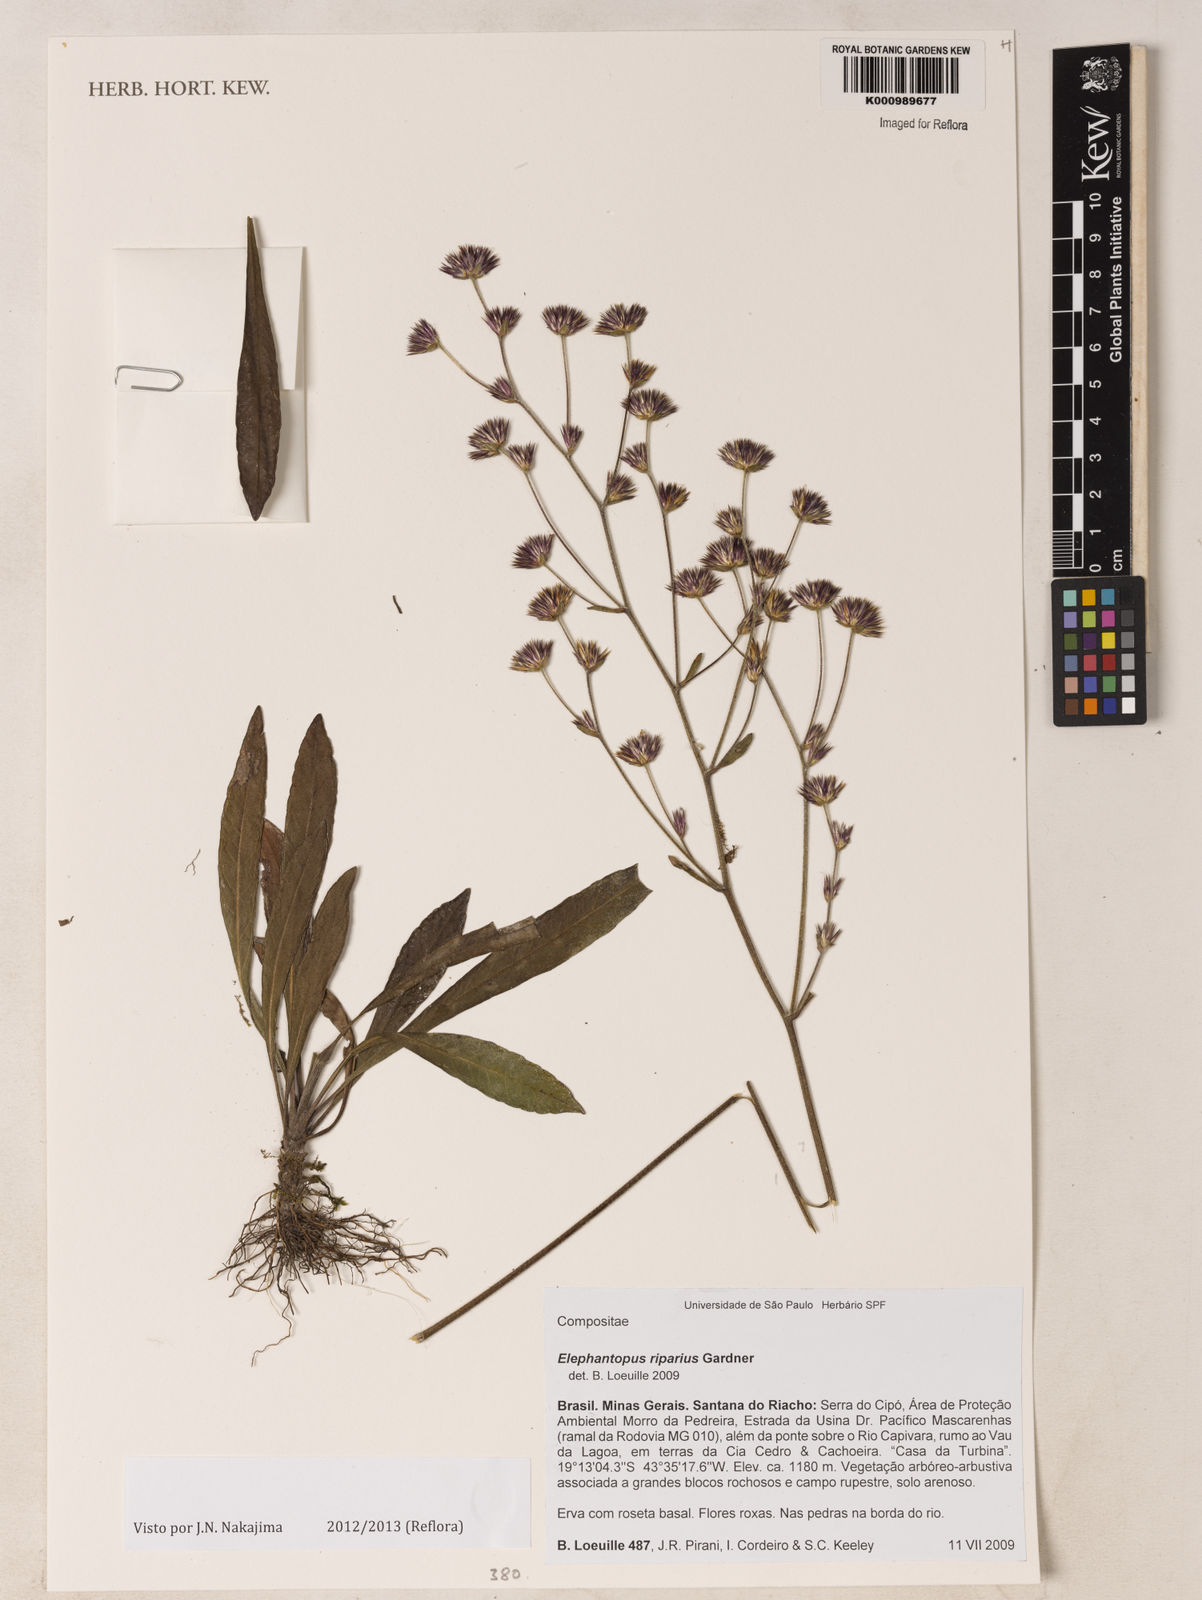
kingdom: Plantae
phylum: Tracheophyta
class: Magnoliopsida
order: Asterales
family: Asteraceae
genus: Elephantopus
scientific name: Elephantopus riparius
